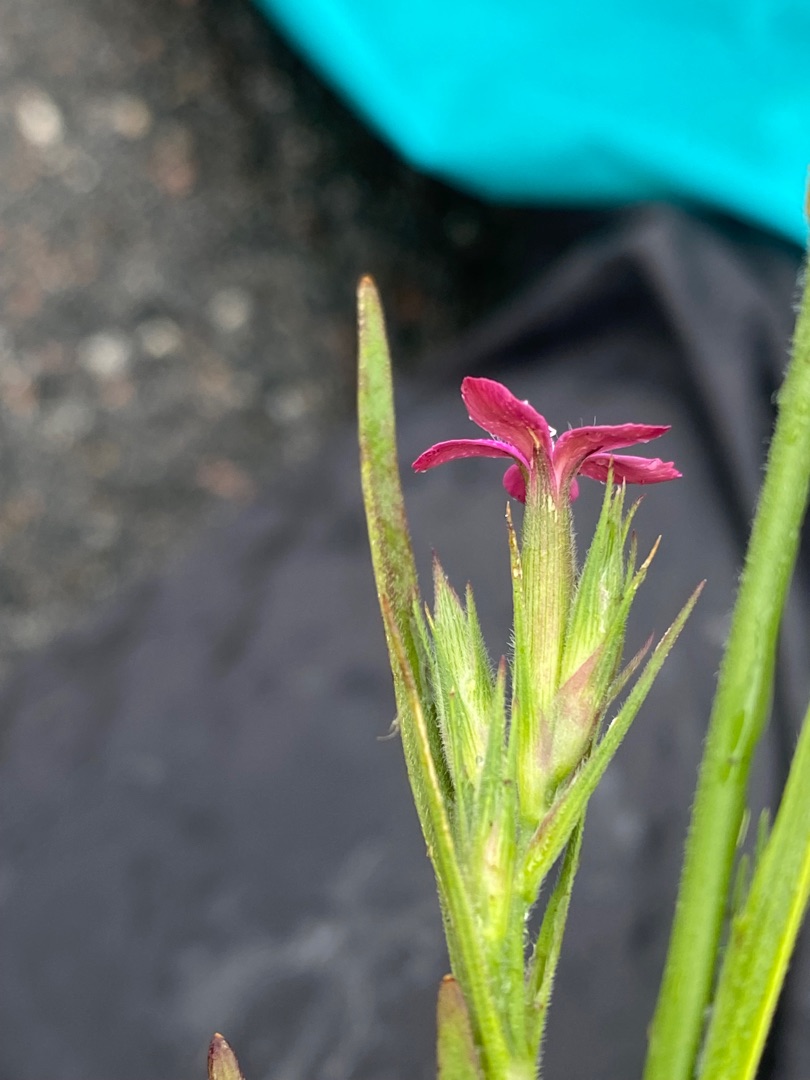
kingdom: Plantae
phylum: Tracheophyta
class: Magnoliopsida
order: Caryophyllales
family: Caryophyllaceae
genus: Dianthus
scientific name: Dianthus armeria
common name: Kost-nellike
